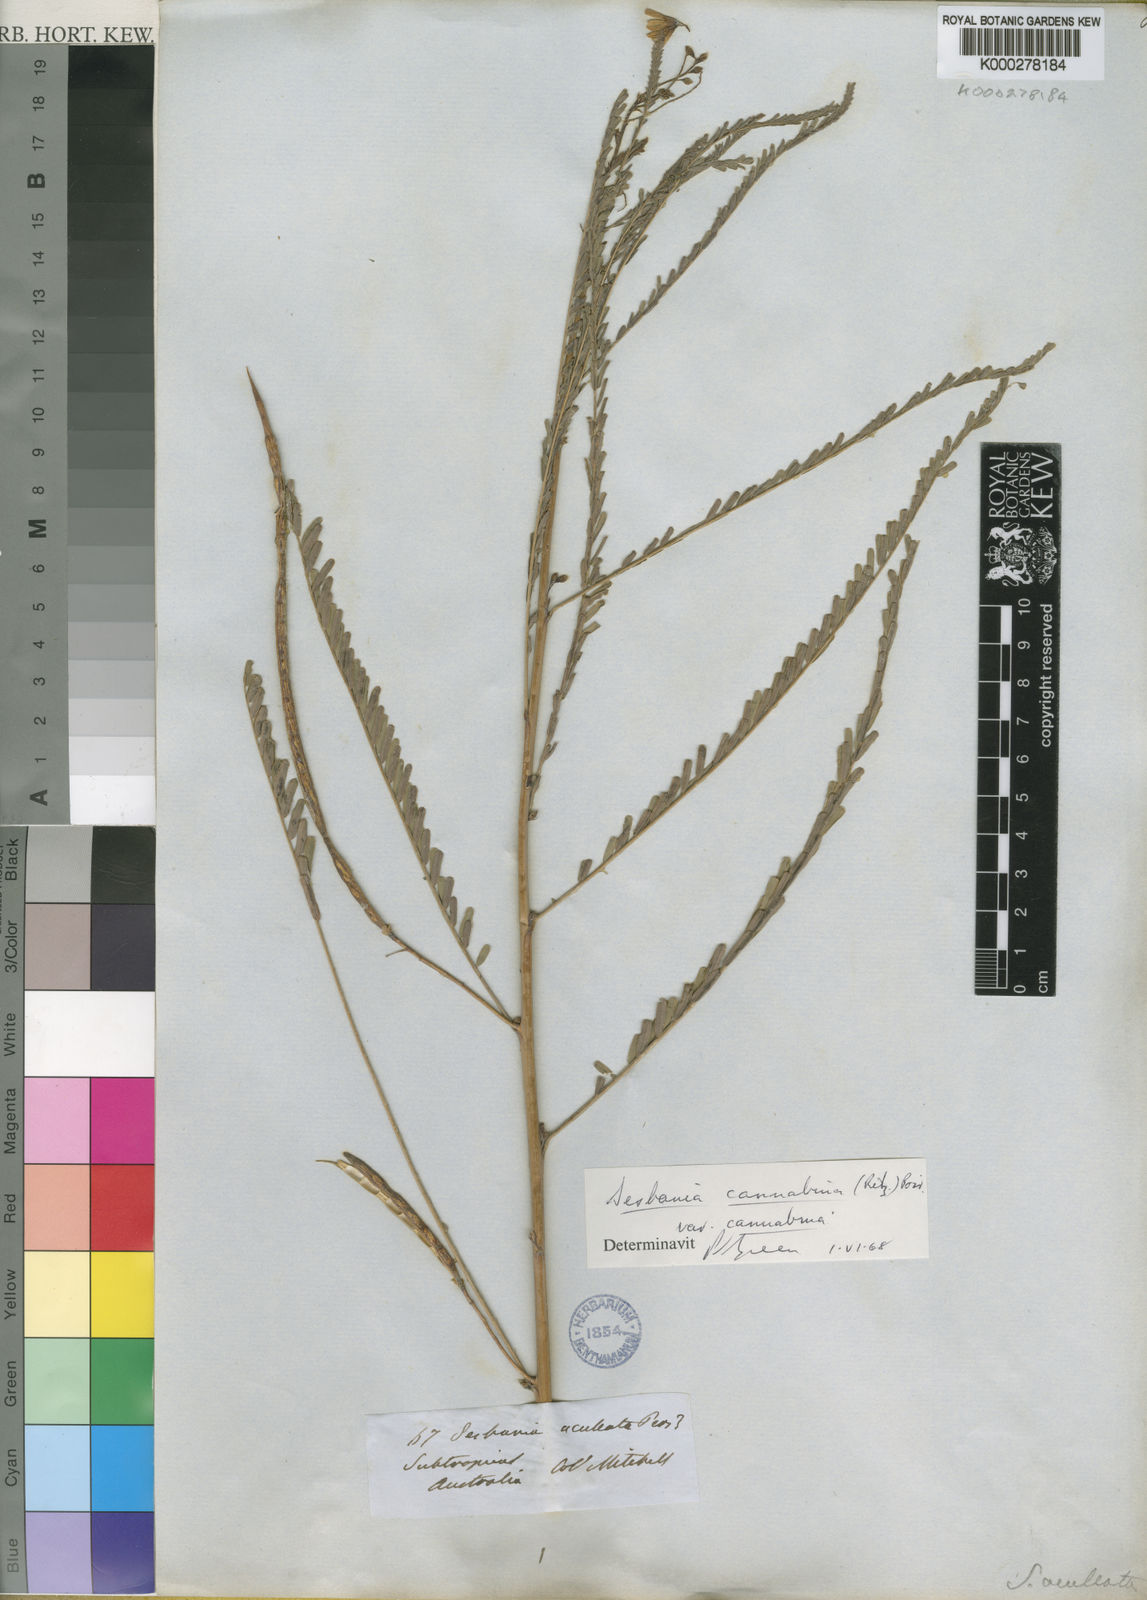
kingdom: Plantae
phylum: Tracheophyta
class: Magnoliopsida
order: Fabales
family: Fabaceae
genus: Sesbania
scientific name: Sesbania cannabina
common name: Canicha
